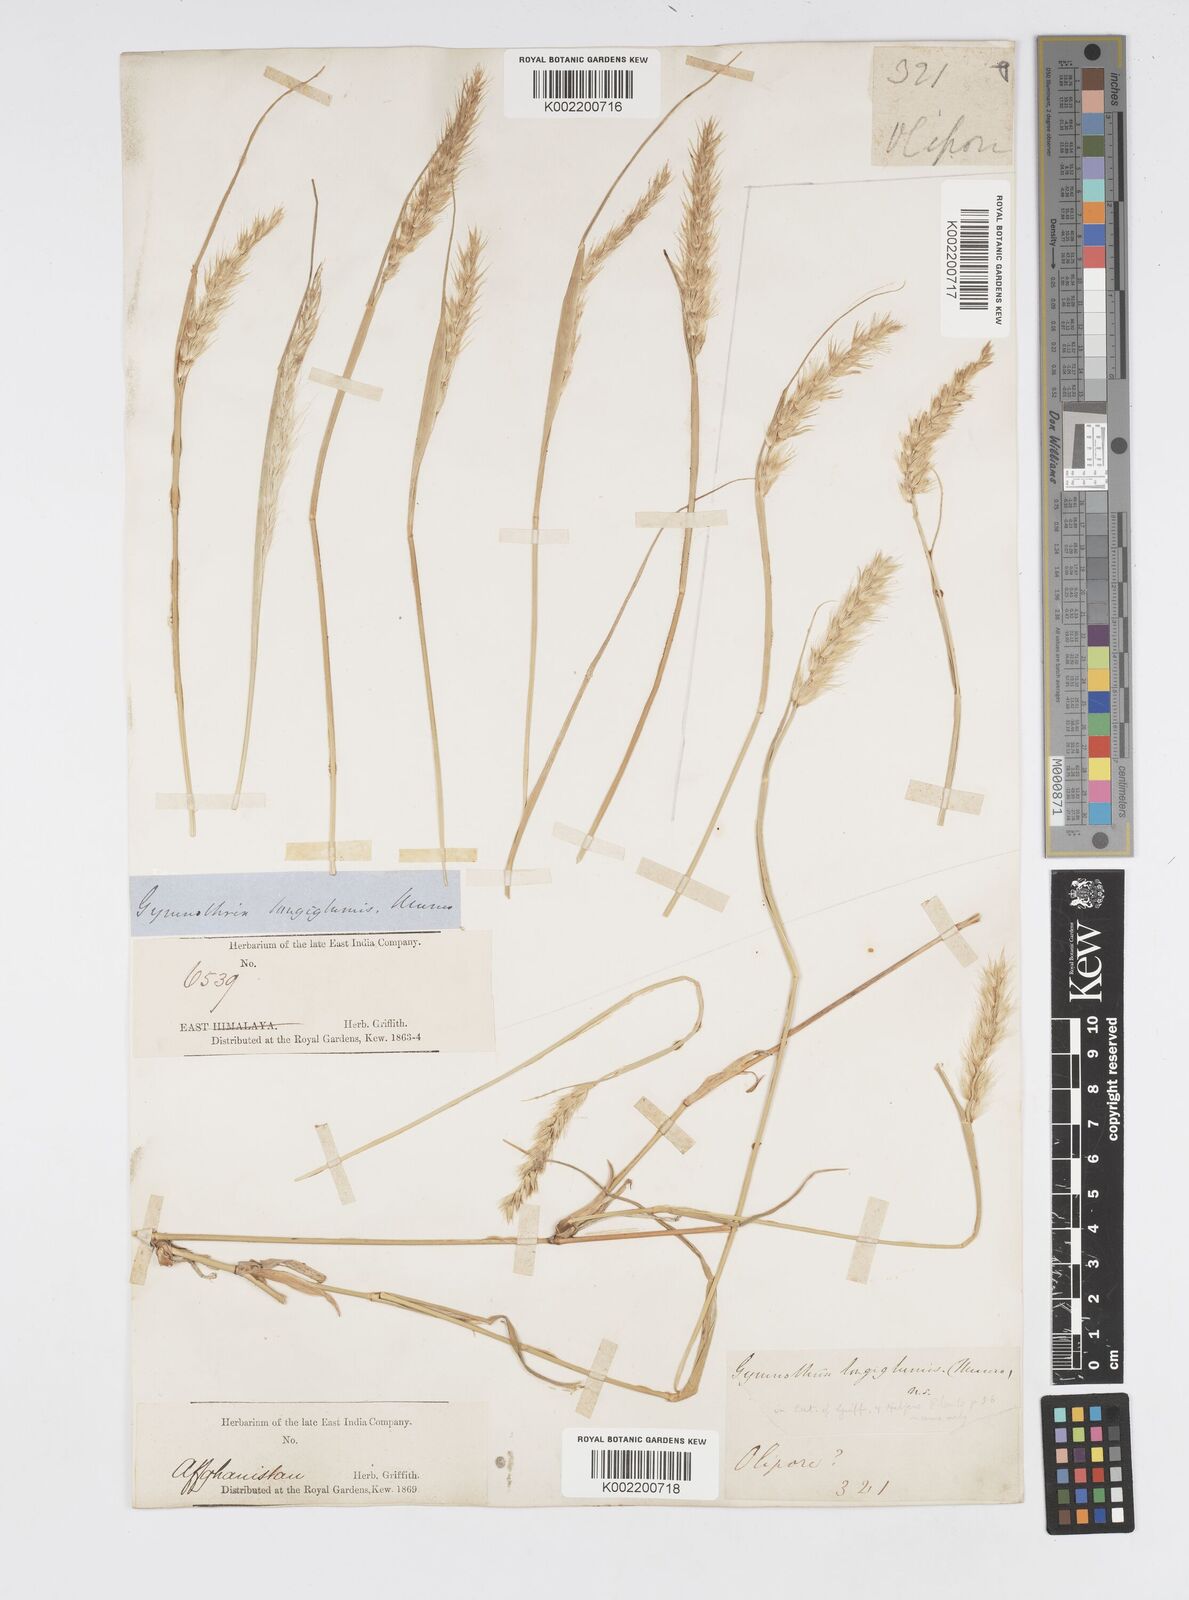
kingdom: Plantae
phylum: Tracheophyta
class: Liliopsida
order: Poales
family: Poaceae
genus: Cenchrus
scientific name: Cenchrus divisus
